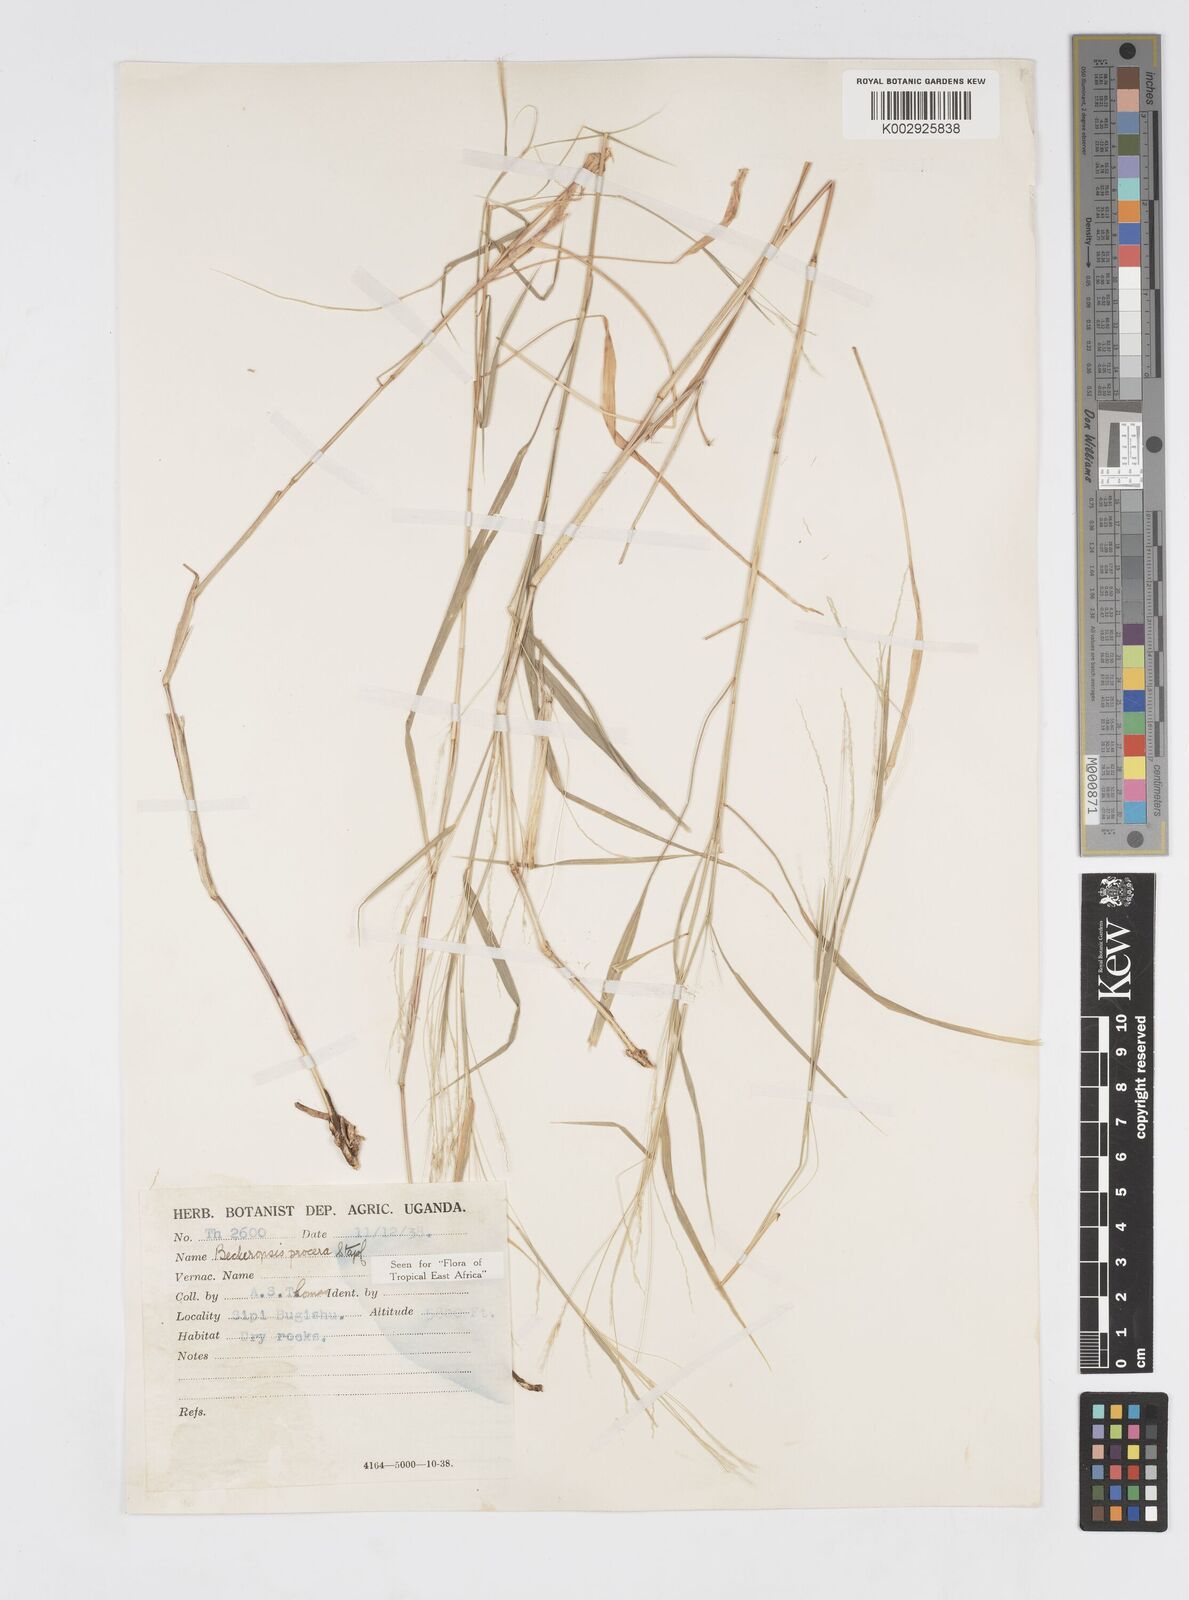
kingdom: Plantae
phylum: Tracheophyta
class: Liliopsida
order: Poales
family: Poaceae
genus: Cenchrus
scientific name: Cenchrus procerus
